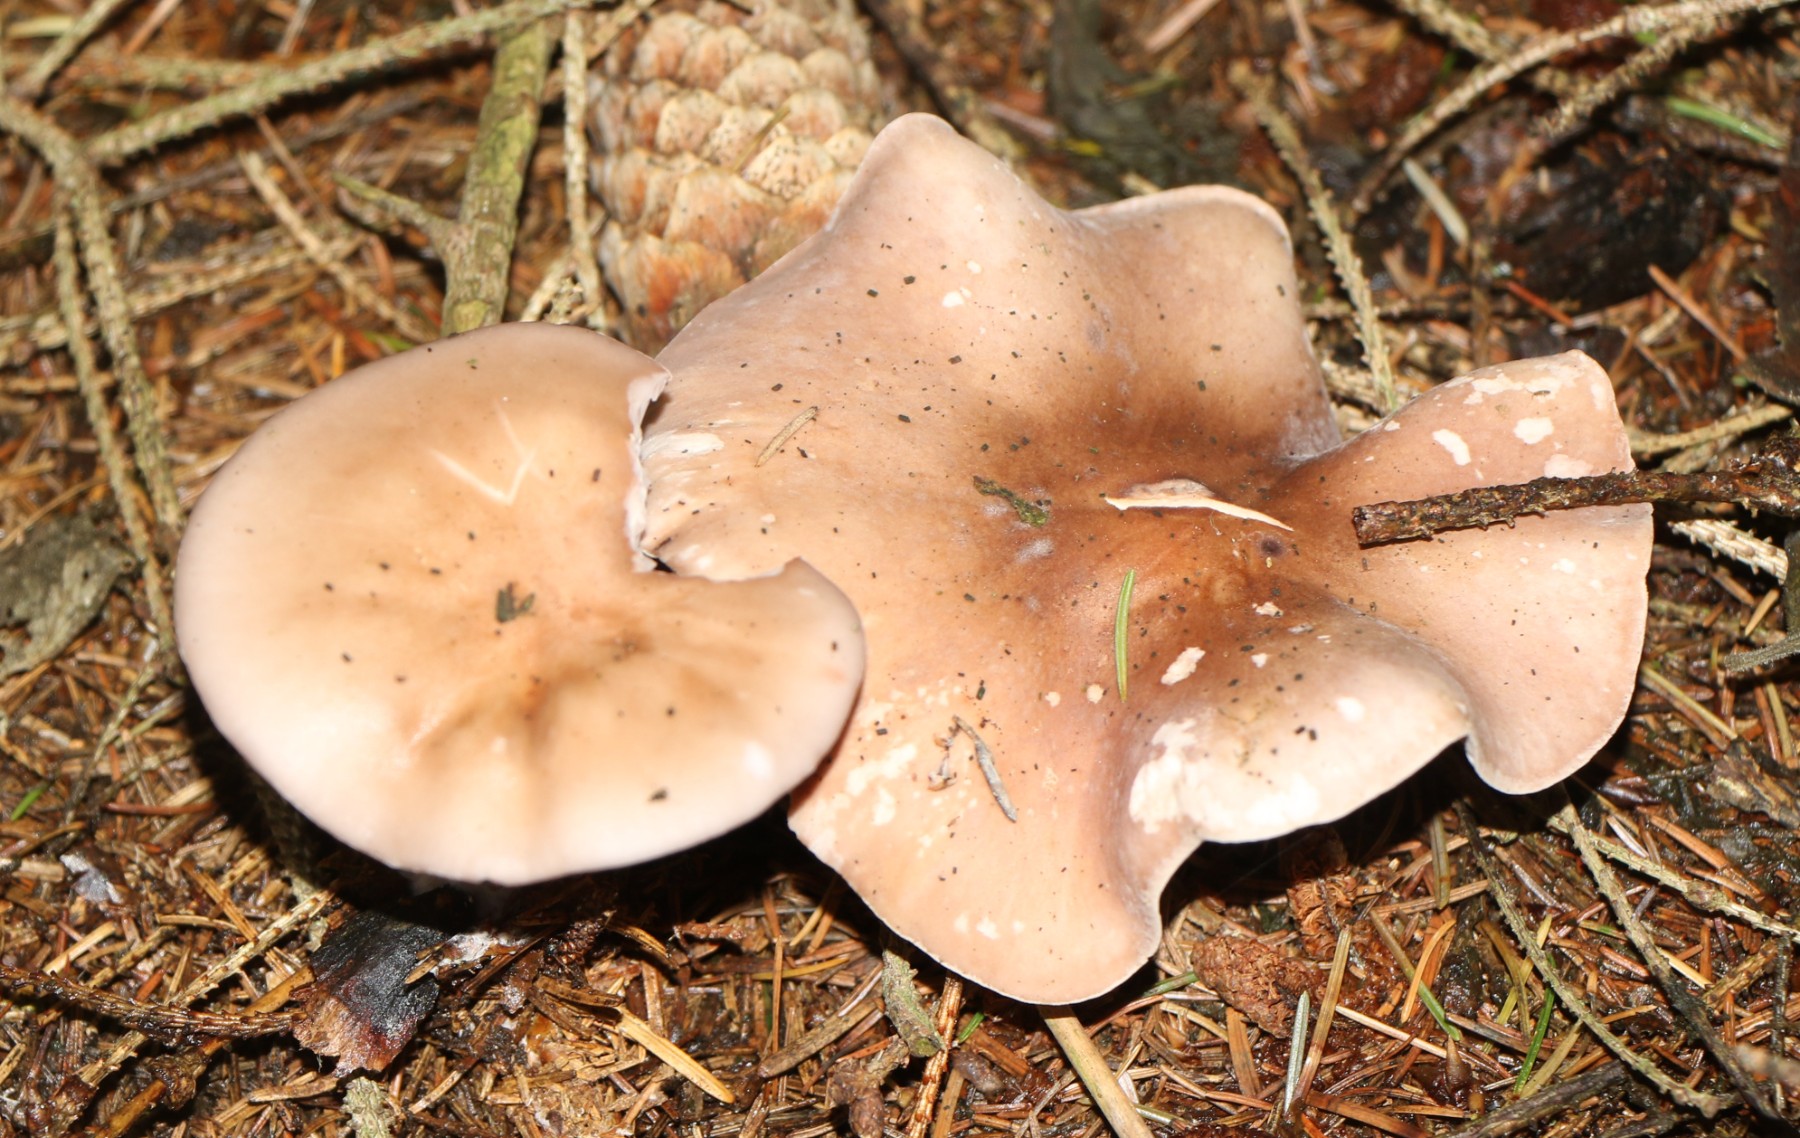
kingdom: Fungi
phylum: Basidiomycota
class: Agaricomycetes
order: Agaricales
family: Tricholomataceae
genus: Lepista
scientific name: Lepista nuda
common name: violet hekseringshat
